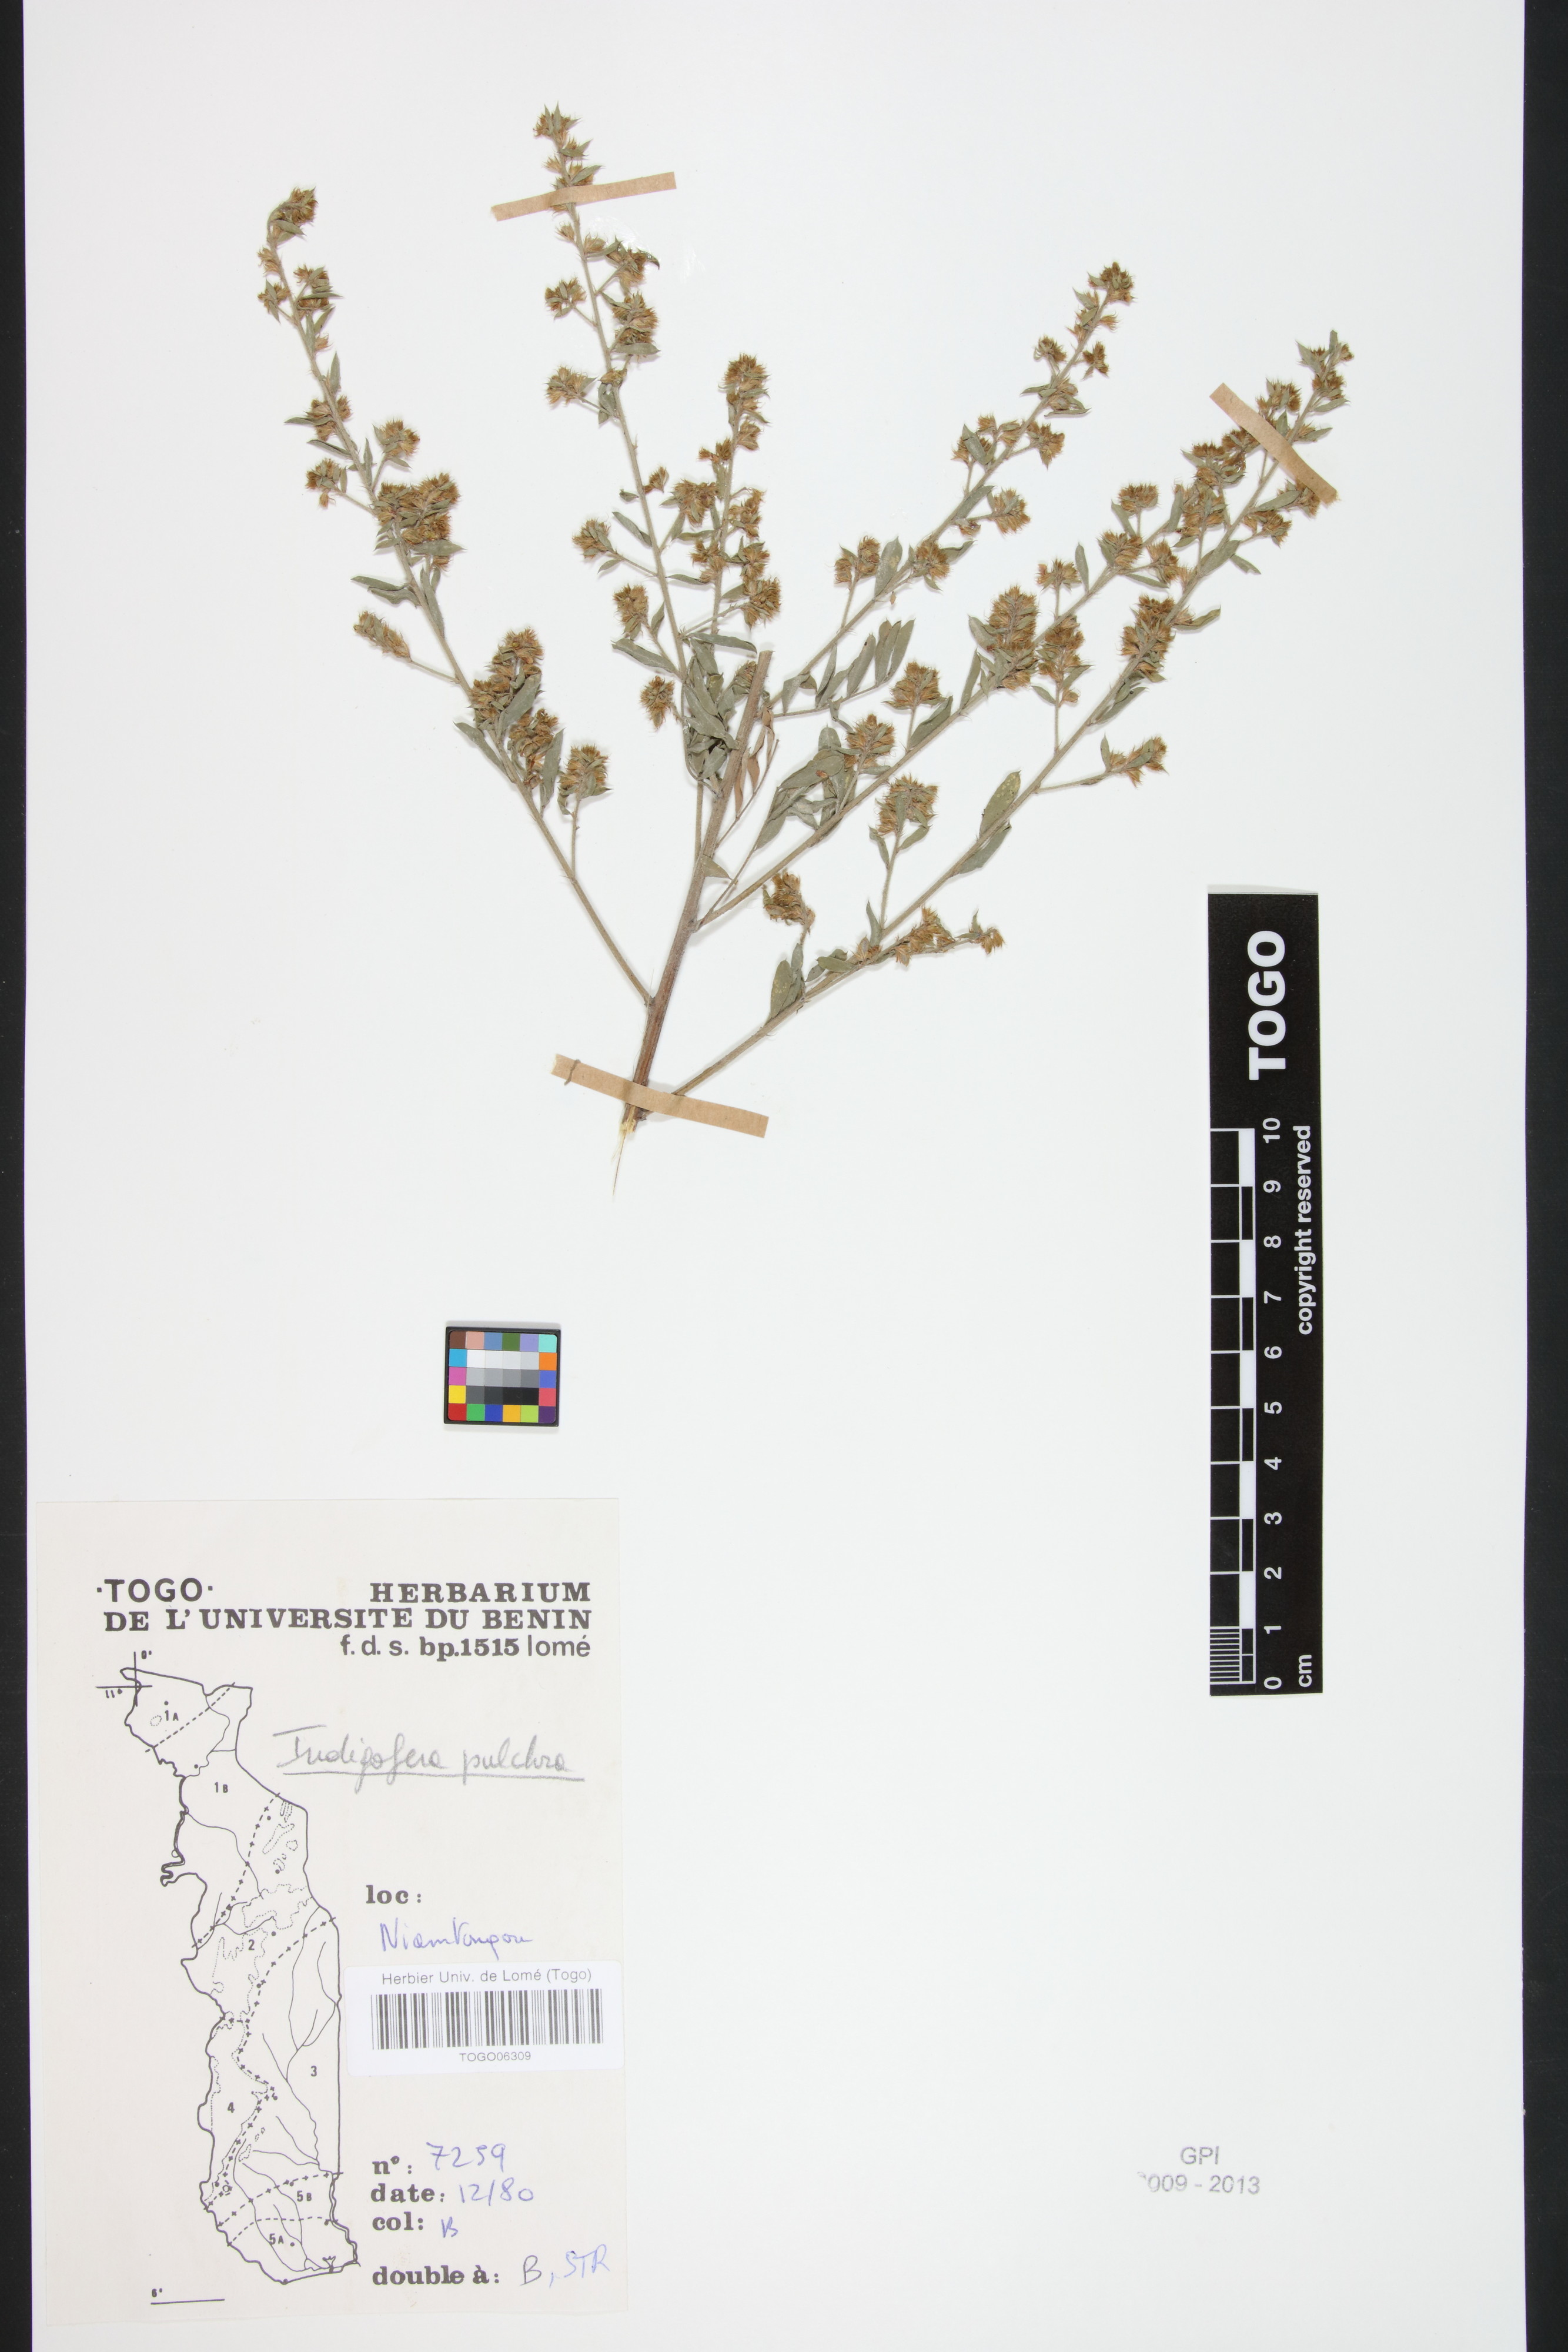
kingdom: Plantae
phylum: Tracheophyta
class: Magnoliopsida
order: Fabales
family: Fabaceae
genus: Indigofera
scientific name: Indigofera pulchra
